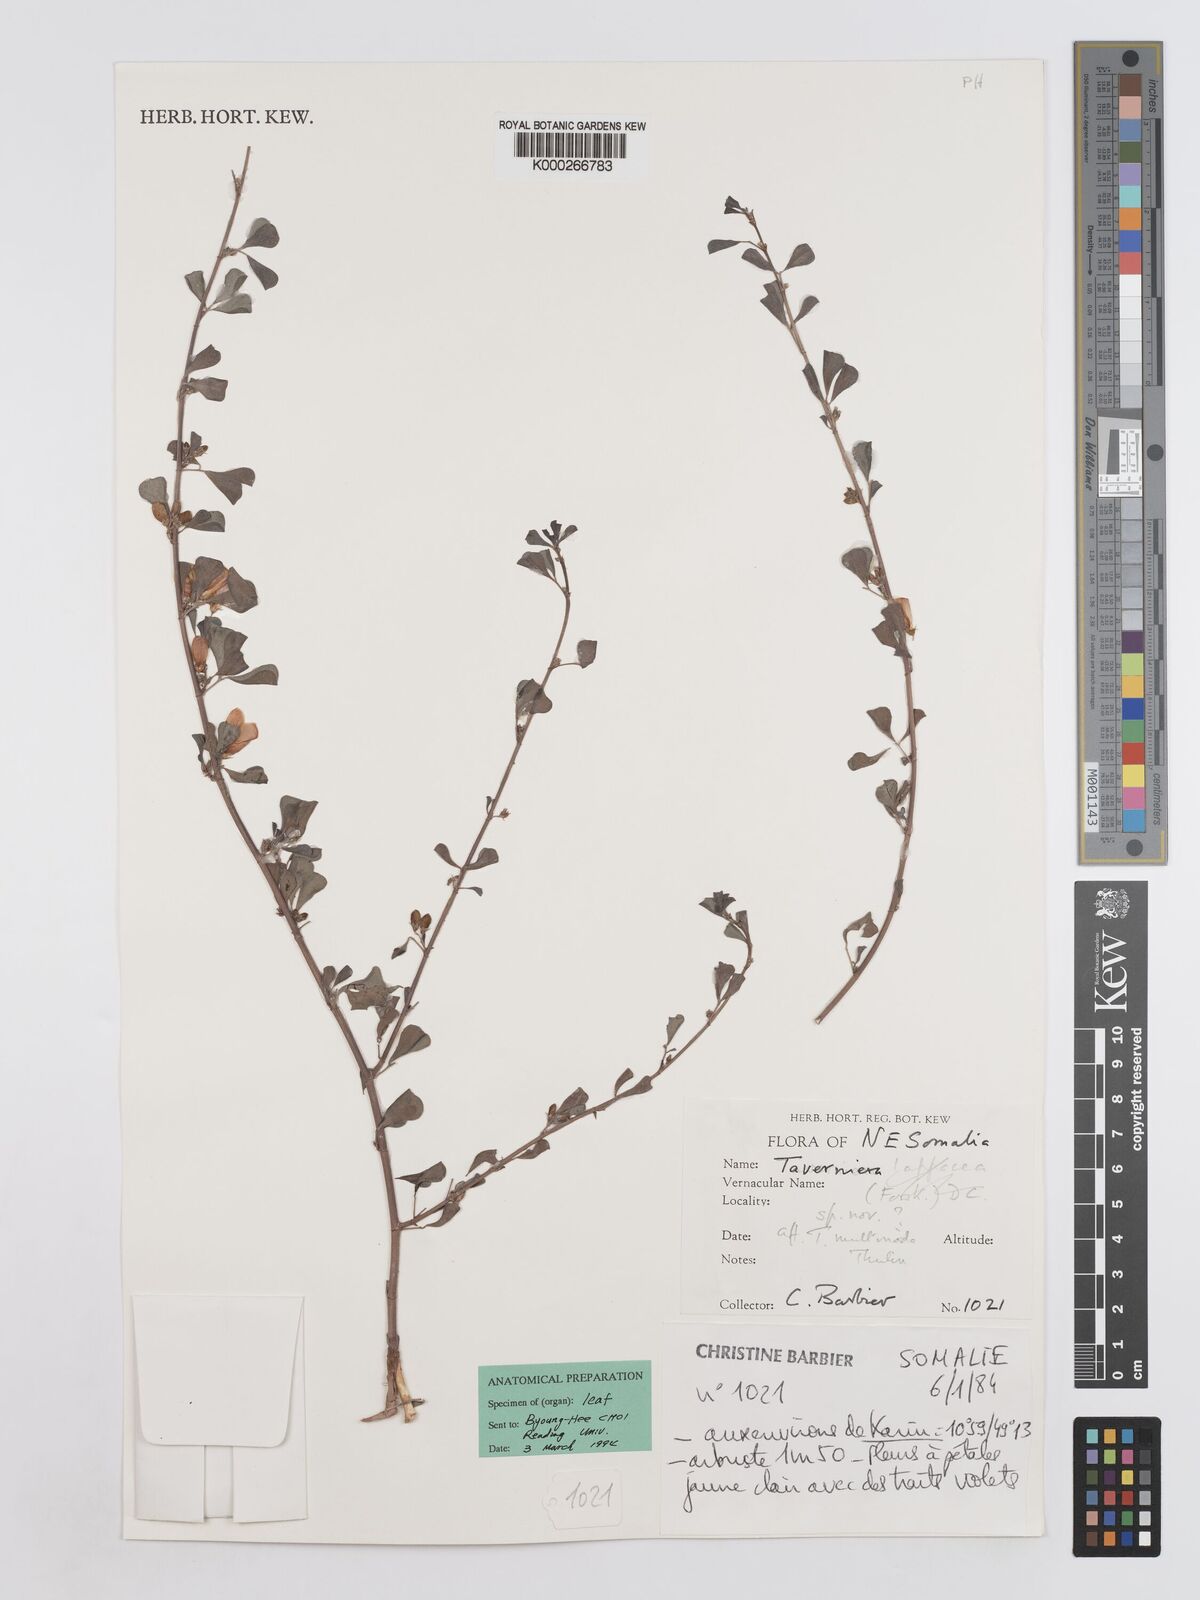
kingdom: Plantae
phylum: Tracheophyta
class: Magnoliopsida
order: Fabales
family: Fabaceae
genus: Taverniera
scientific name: Taverniera lappacea
